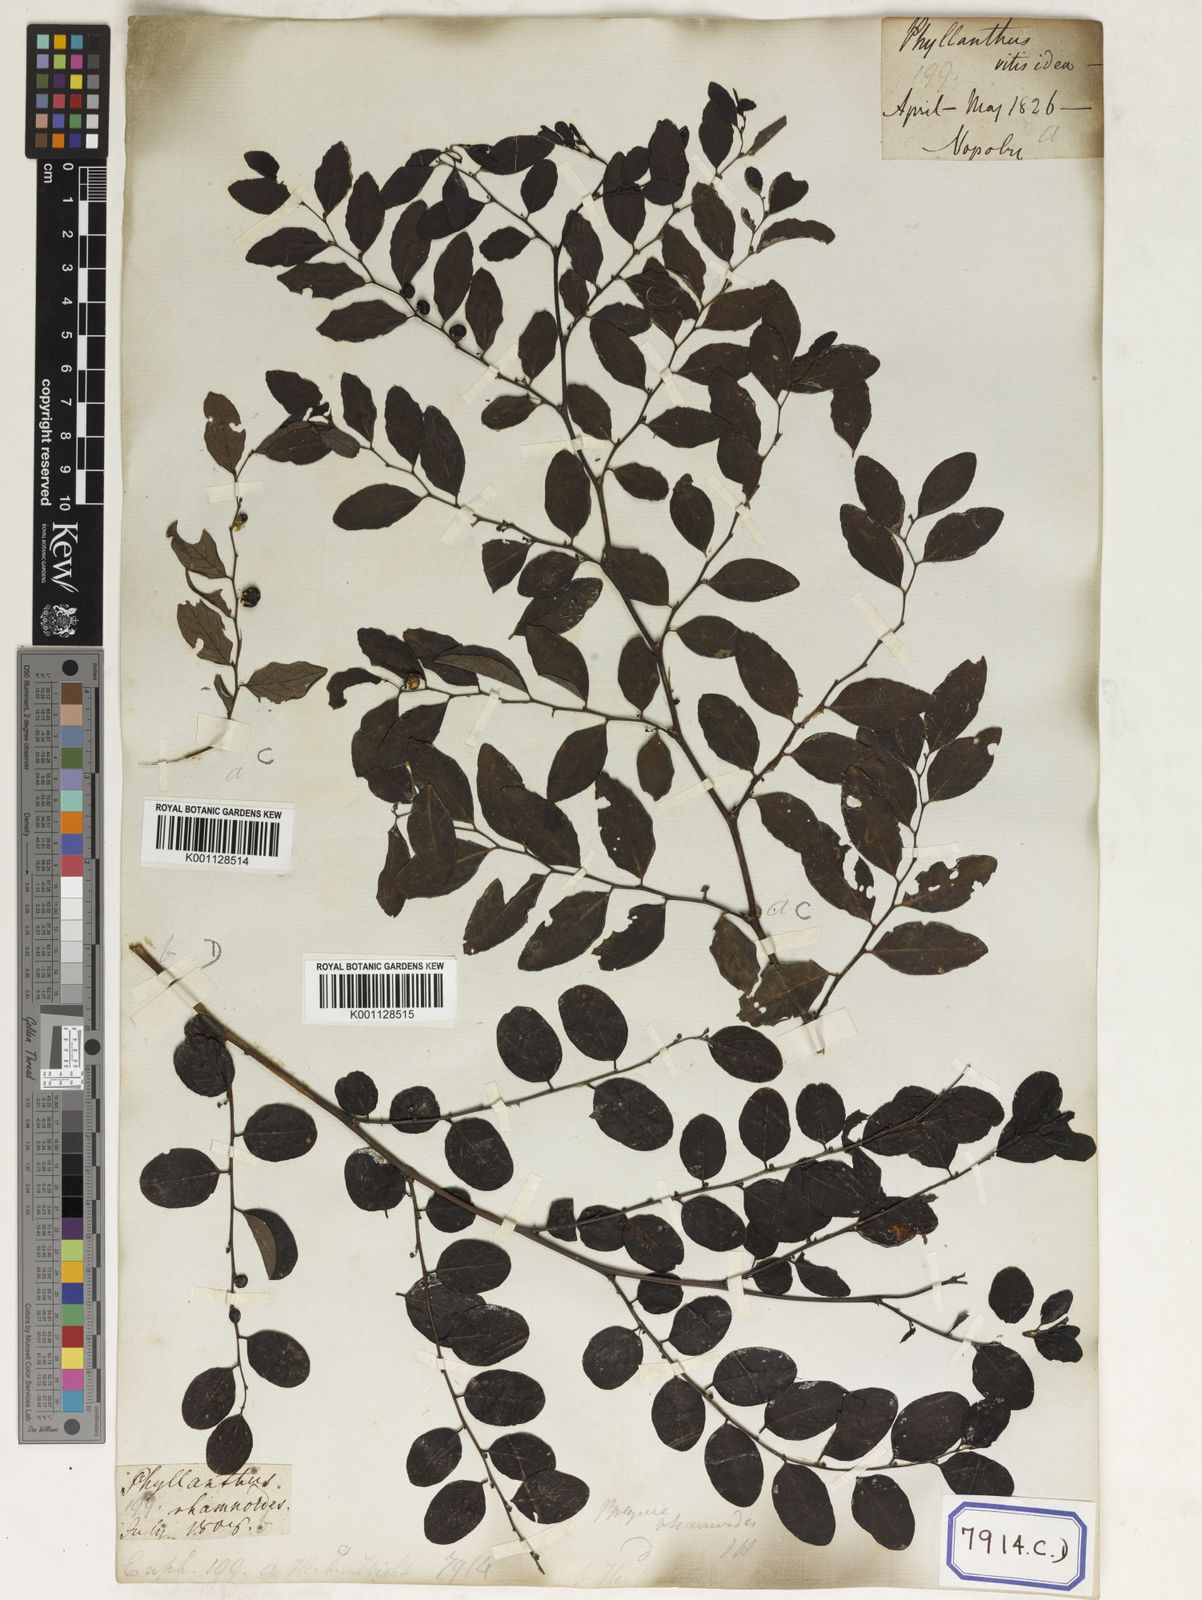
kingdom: Plantae
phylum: Tracheophyta
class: Magnoliopsida
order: Malpighiales
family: Euphorbiaceae
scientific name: Euphorbiaceae
